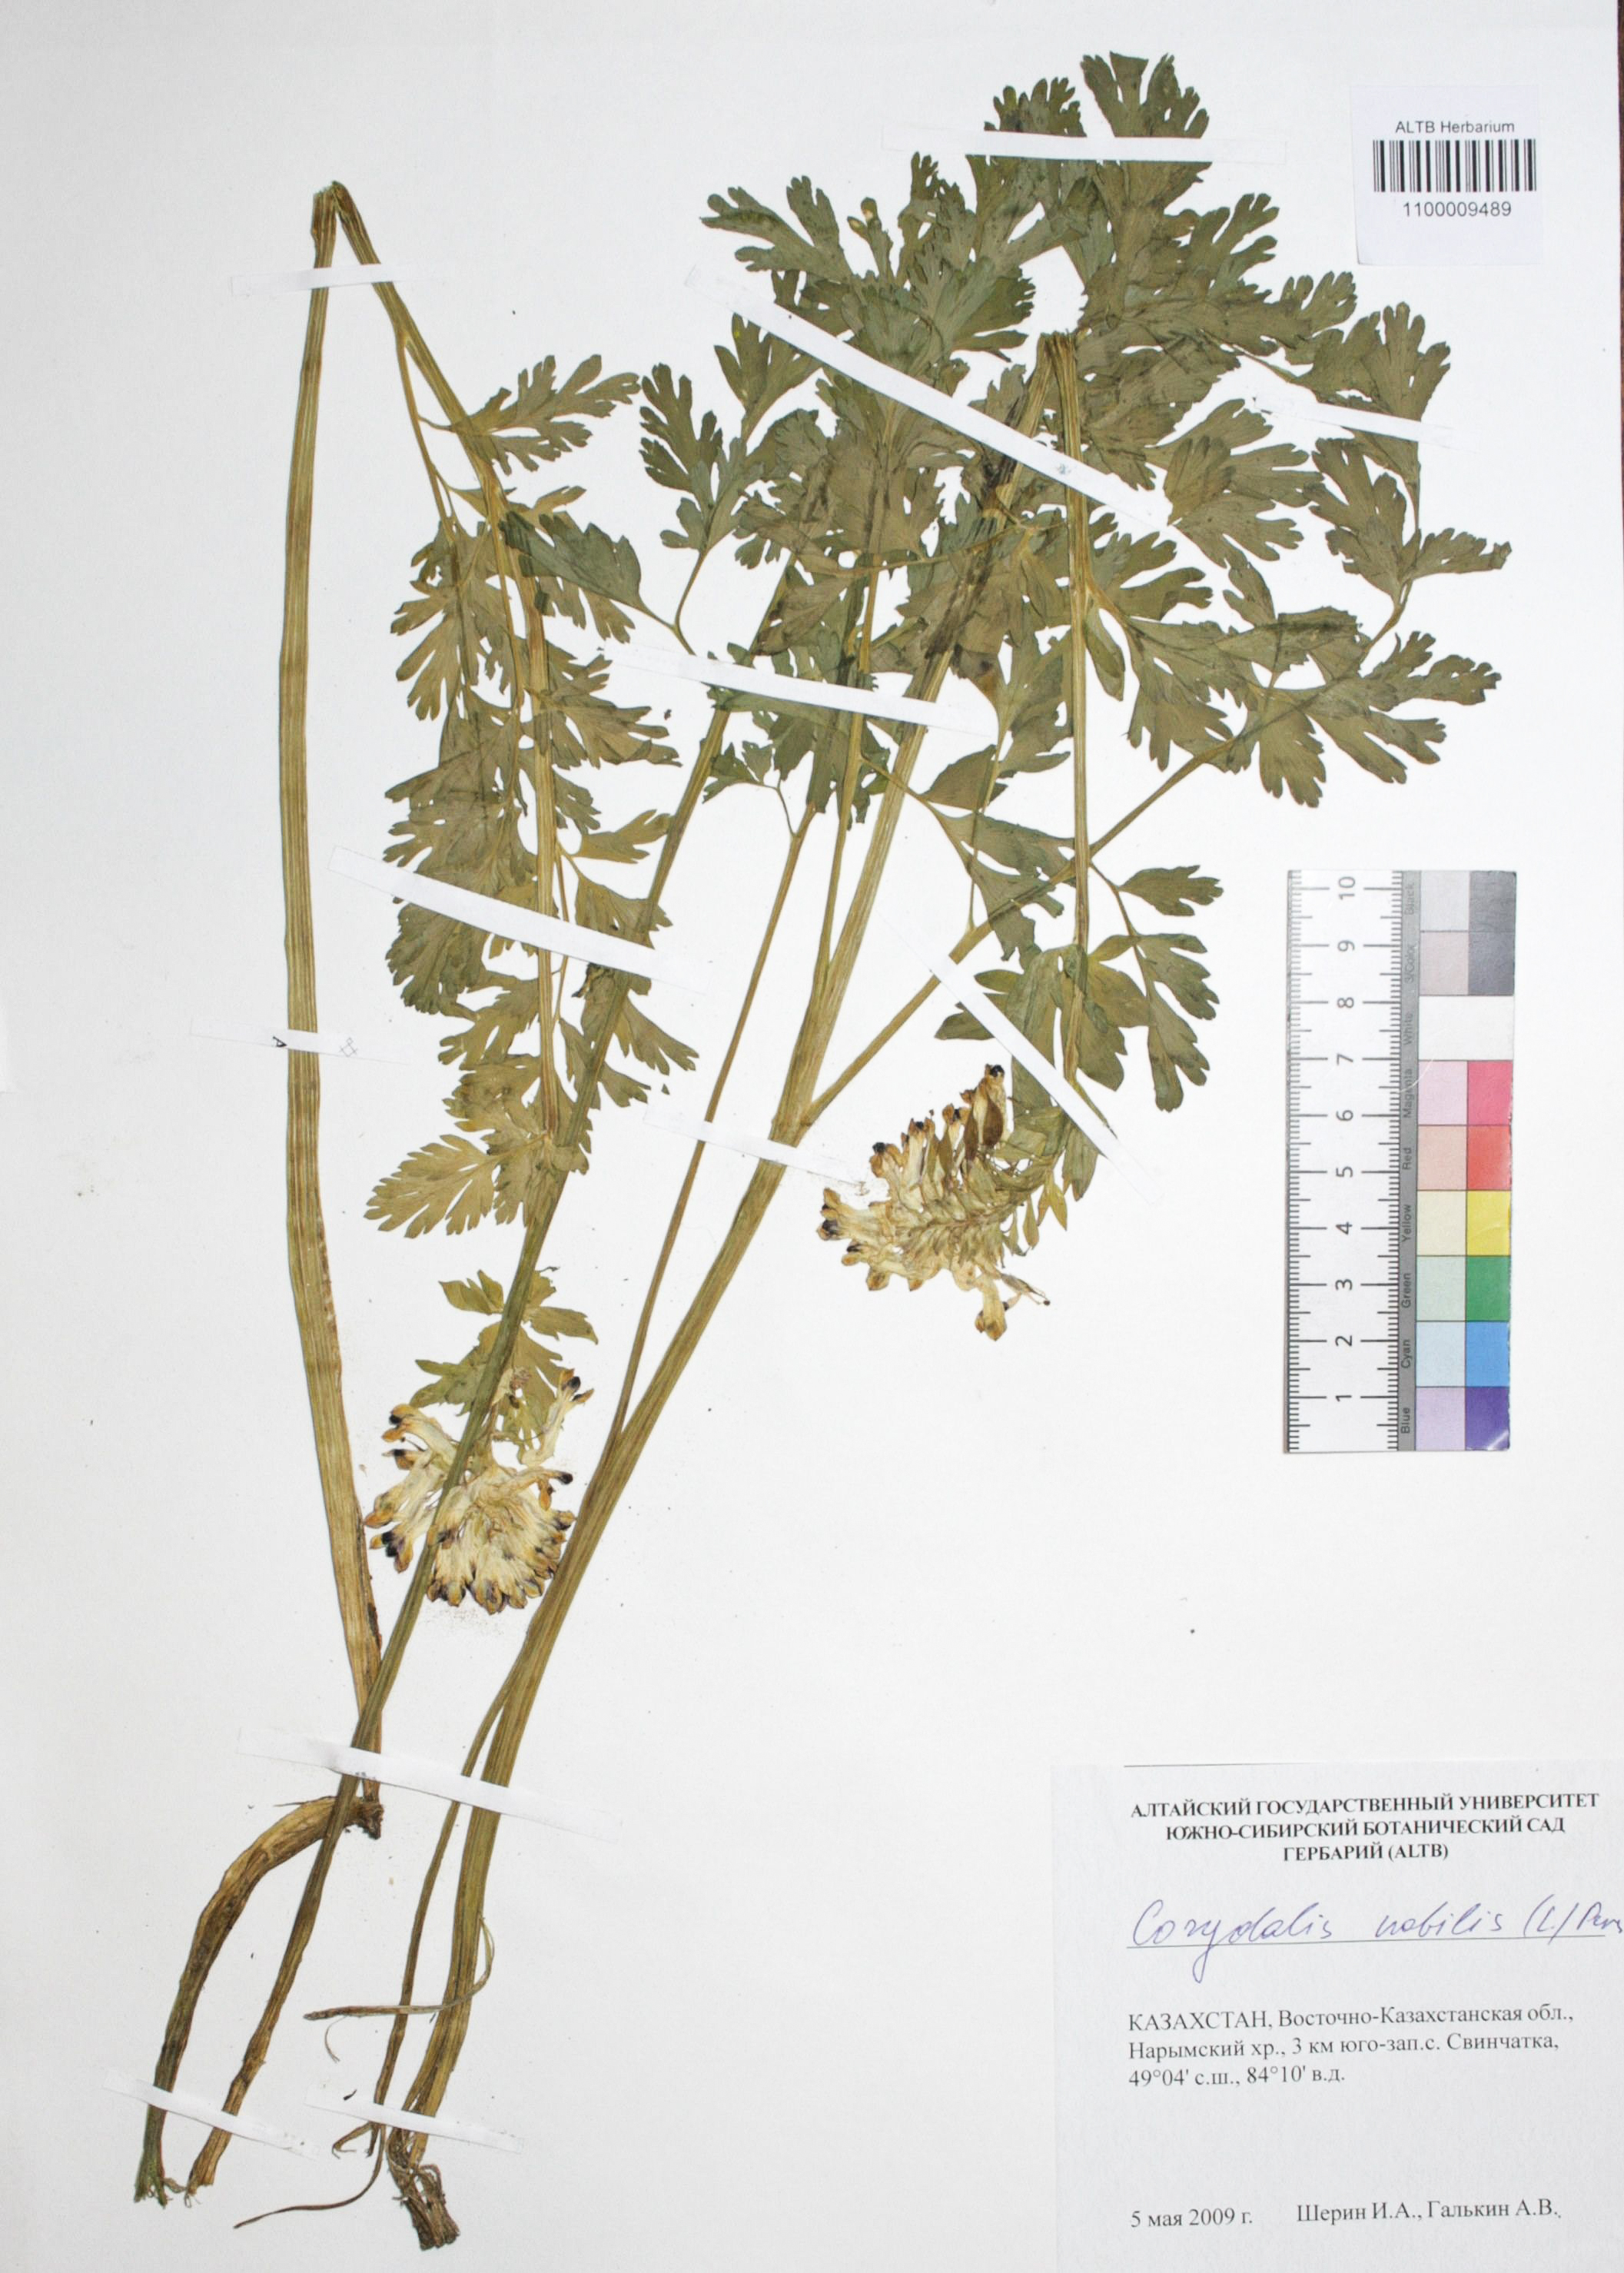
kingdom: Plantae
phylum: Tracheophyta
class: Magnoliopsida
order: Ranunculales
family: Papaveraceae
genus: Corydalis
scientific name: Corydalis nobilis
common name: Siberian corydalis
